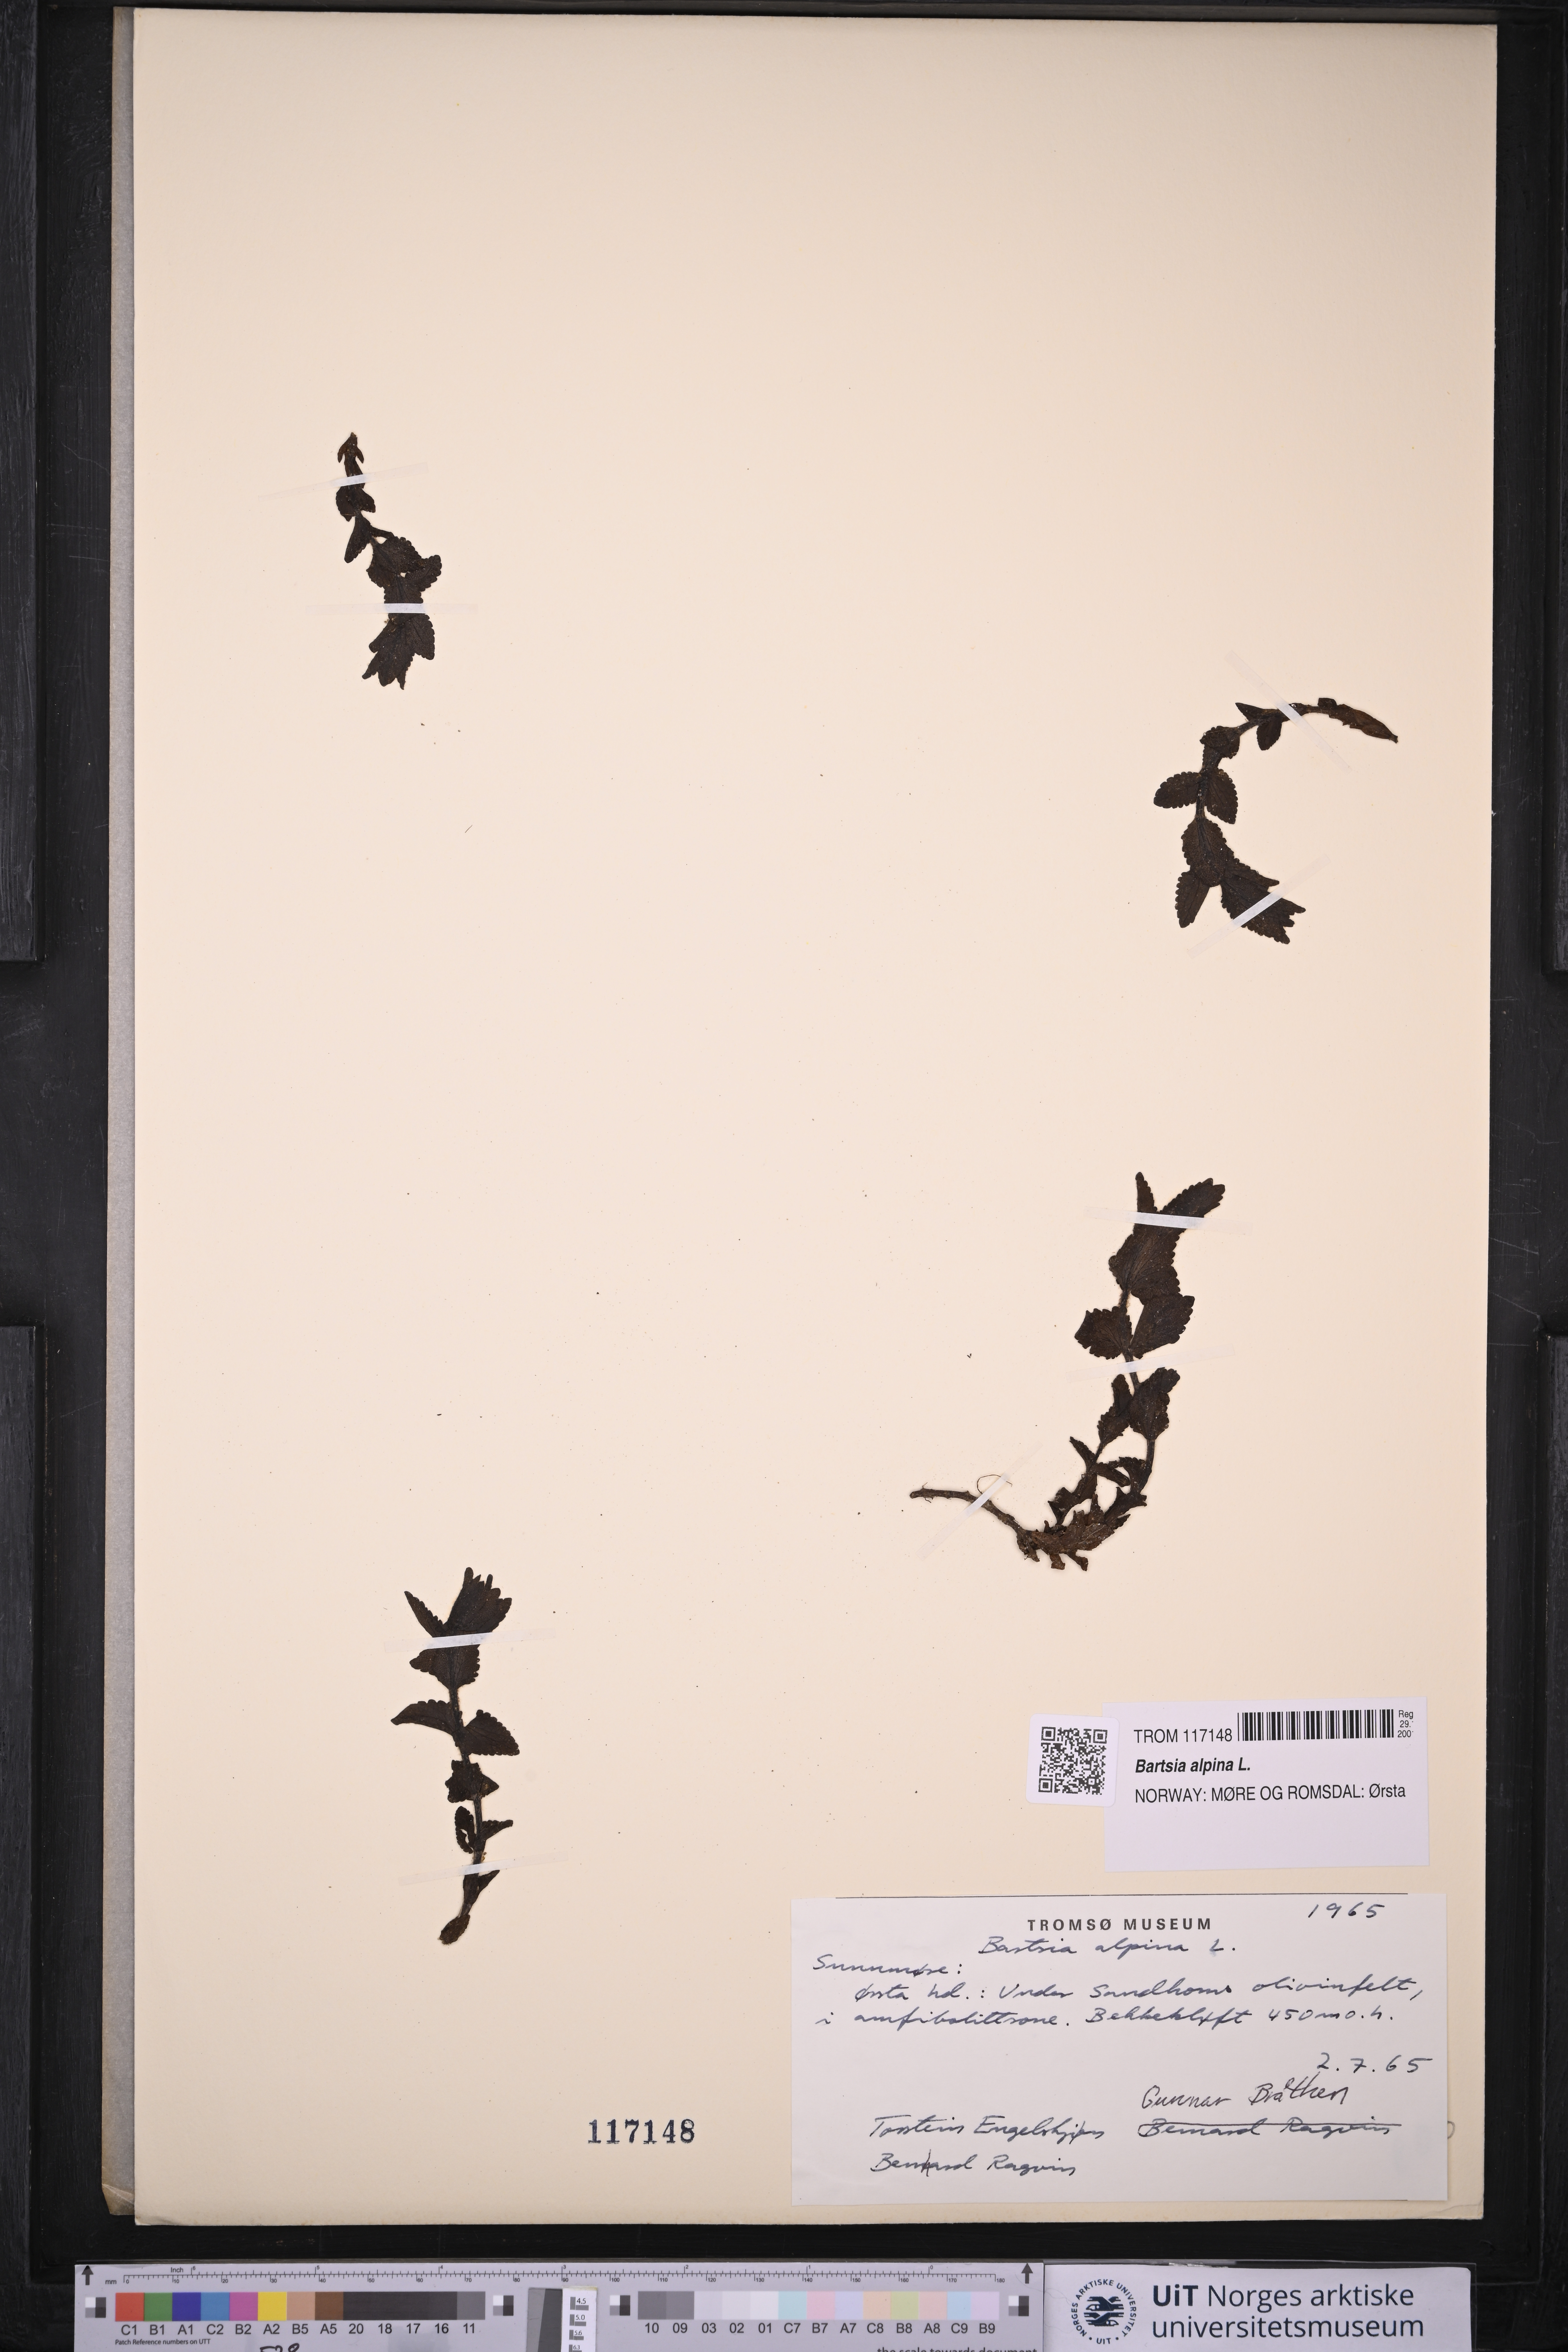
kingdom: Plantae
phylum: Tracheophyta
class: Magnoliopsida
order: Lamiales
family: Orobanchaceae
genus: Bartsia
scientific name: Bartsia alpina
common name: Alpine bartsia
